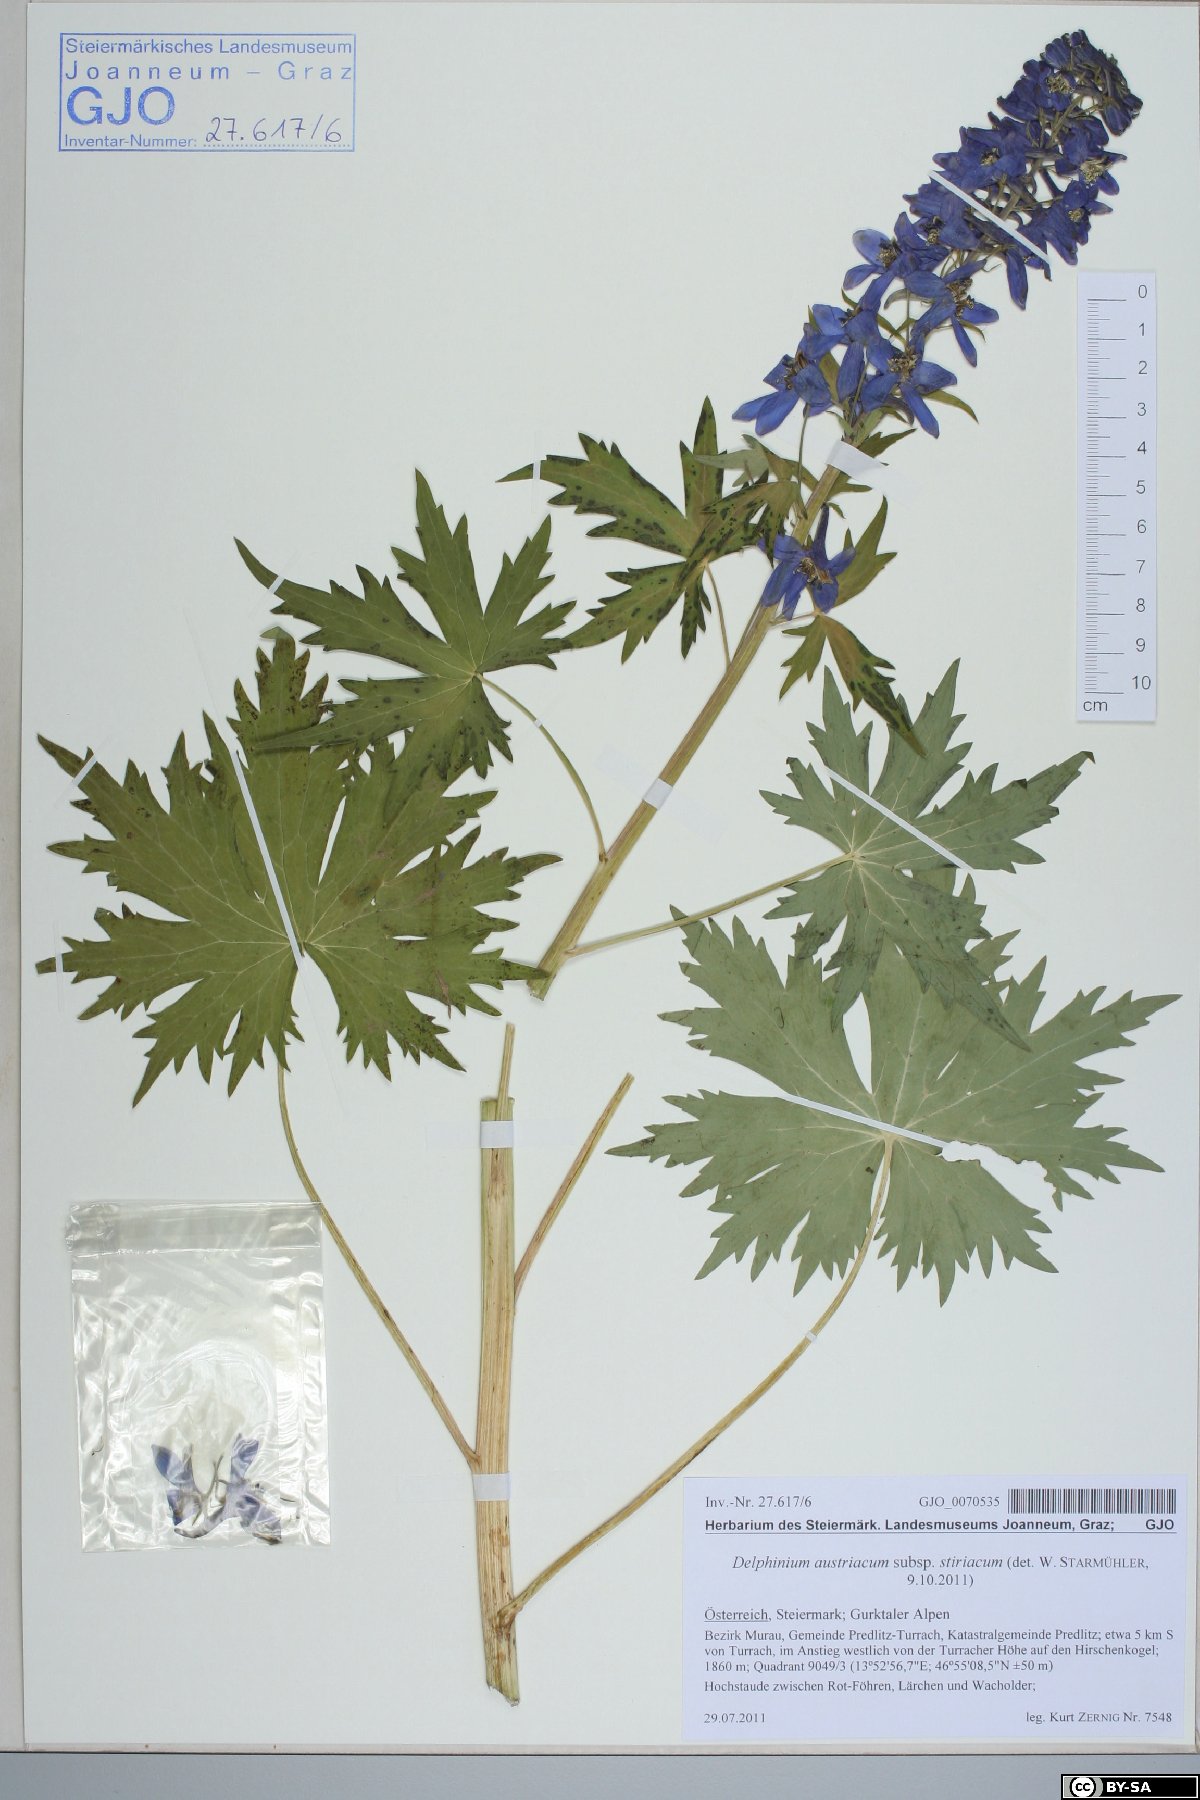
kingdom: Plantae
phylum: Tracheophyta
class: Magnoliopsida
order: Ranunculales
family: Ranunculaceae
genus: Delphinium
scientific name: Delphinium austriacum
